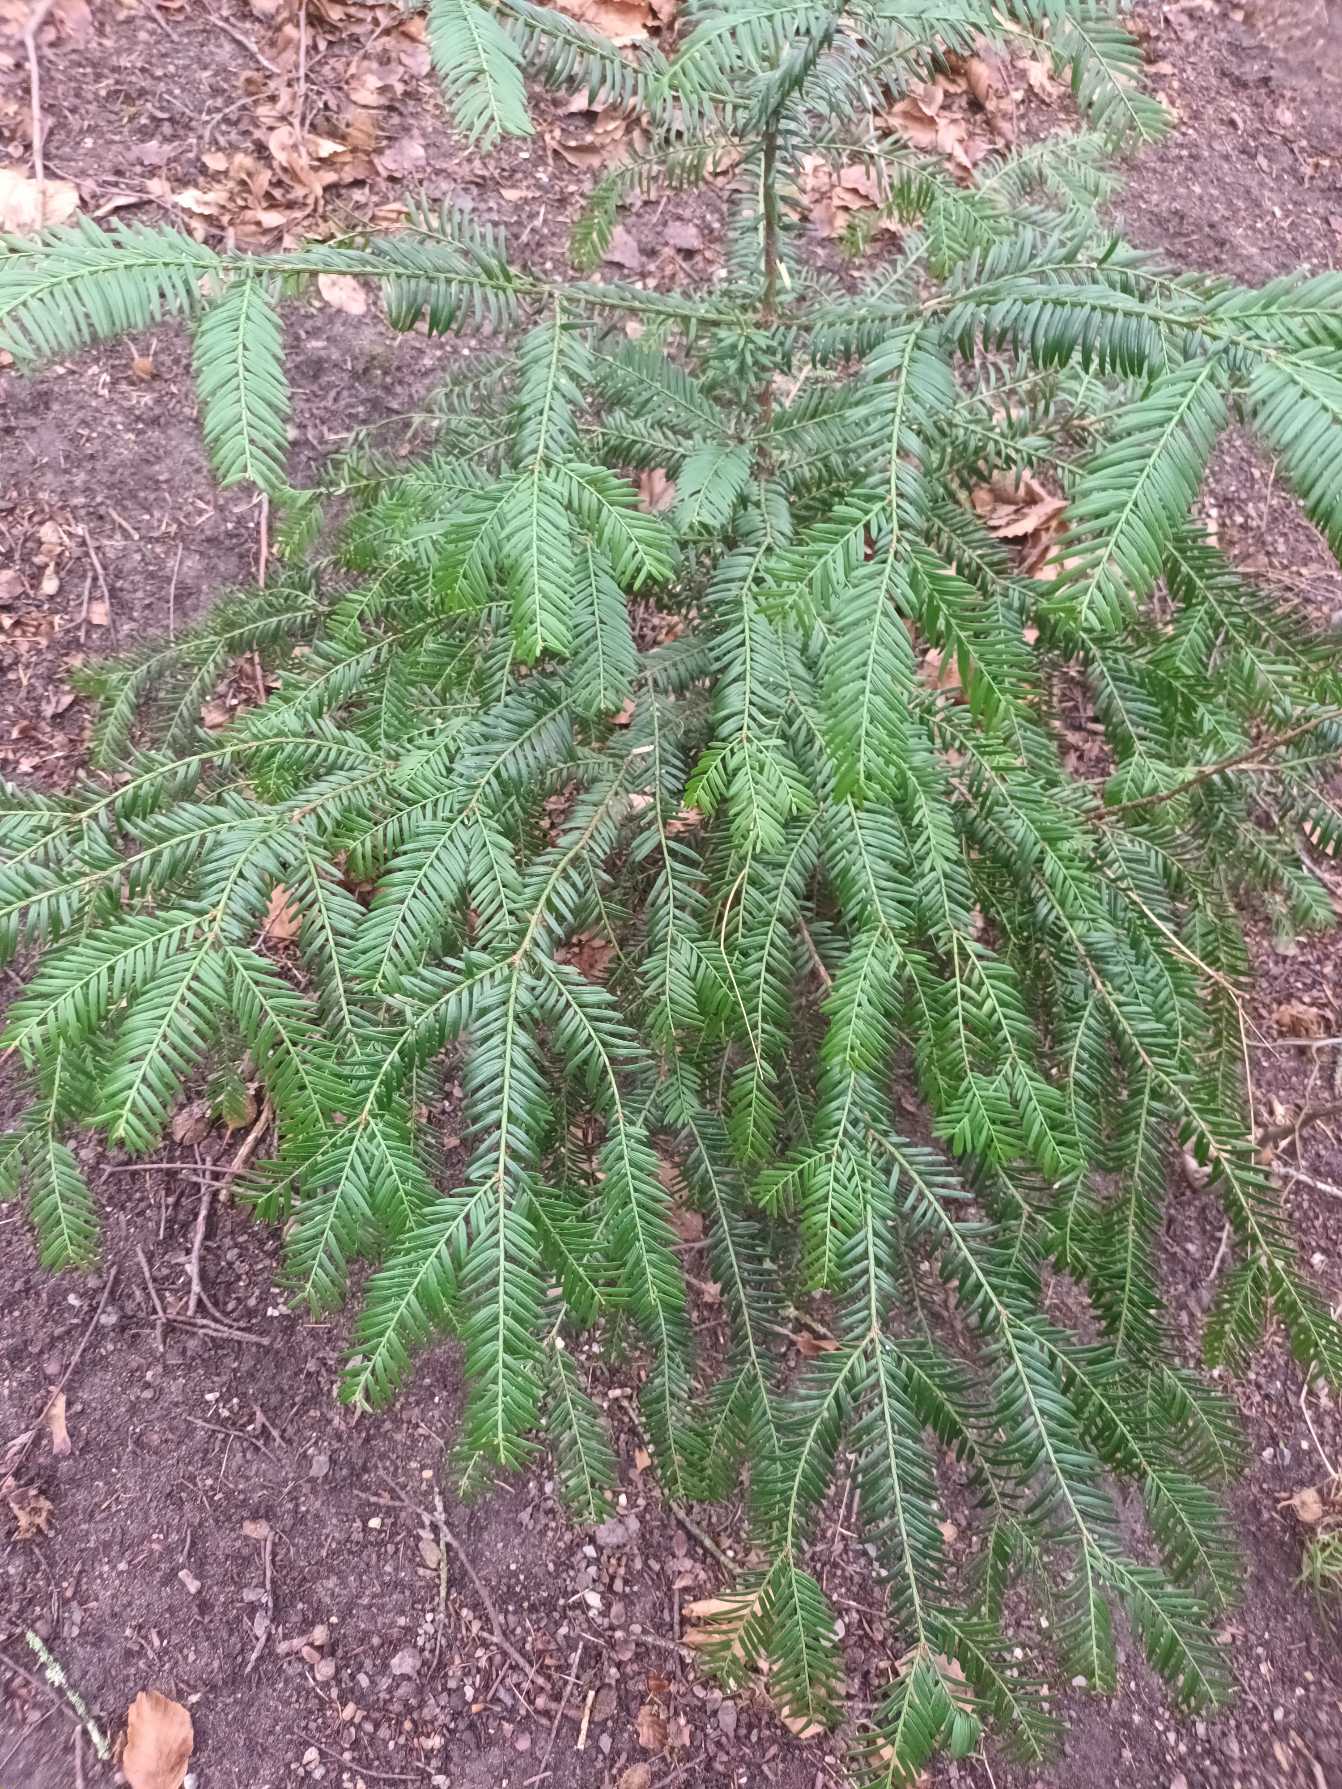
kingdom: Plantae
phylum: Tracheophyta
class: Pinopsida
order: Pinales
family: Taxaceae
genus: Taxus
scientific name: Taxus baccata
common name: Almindelig taks
